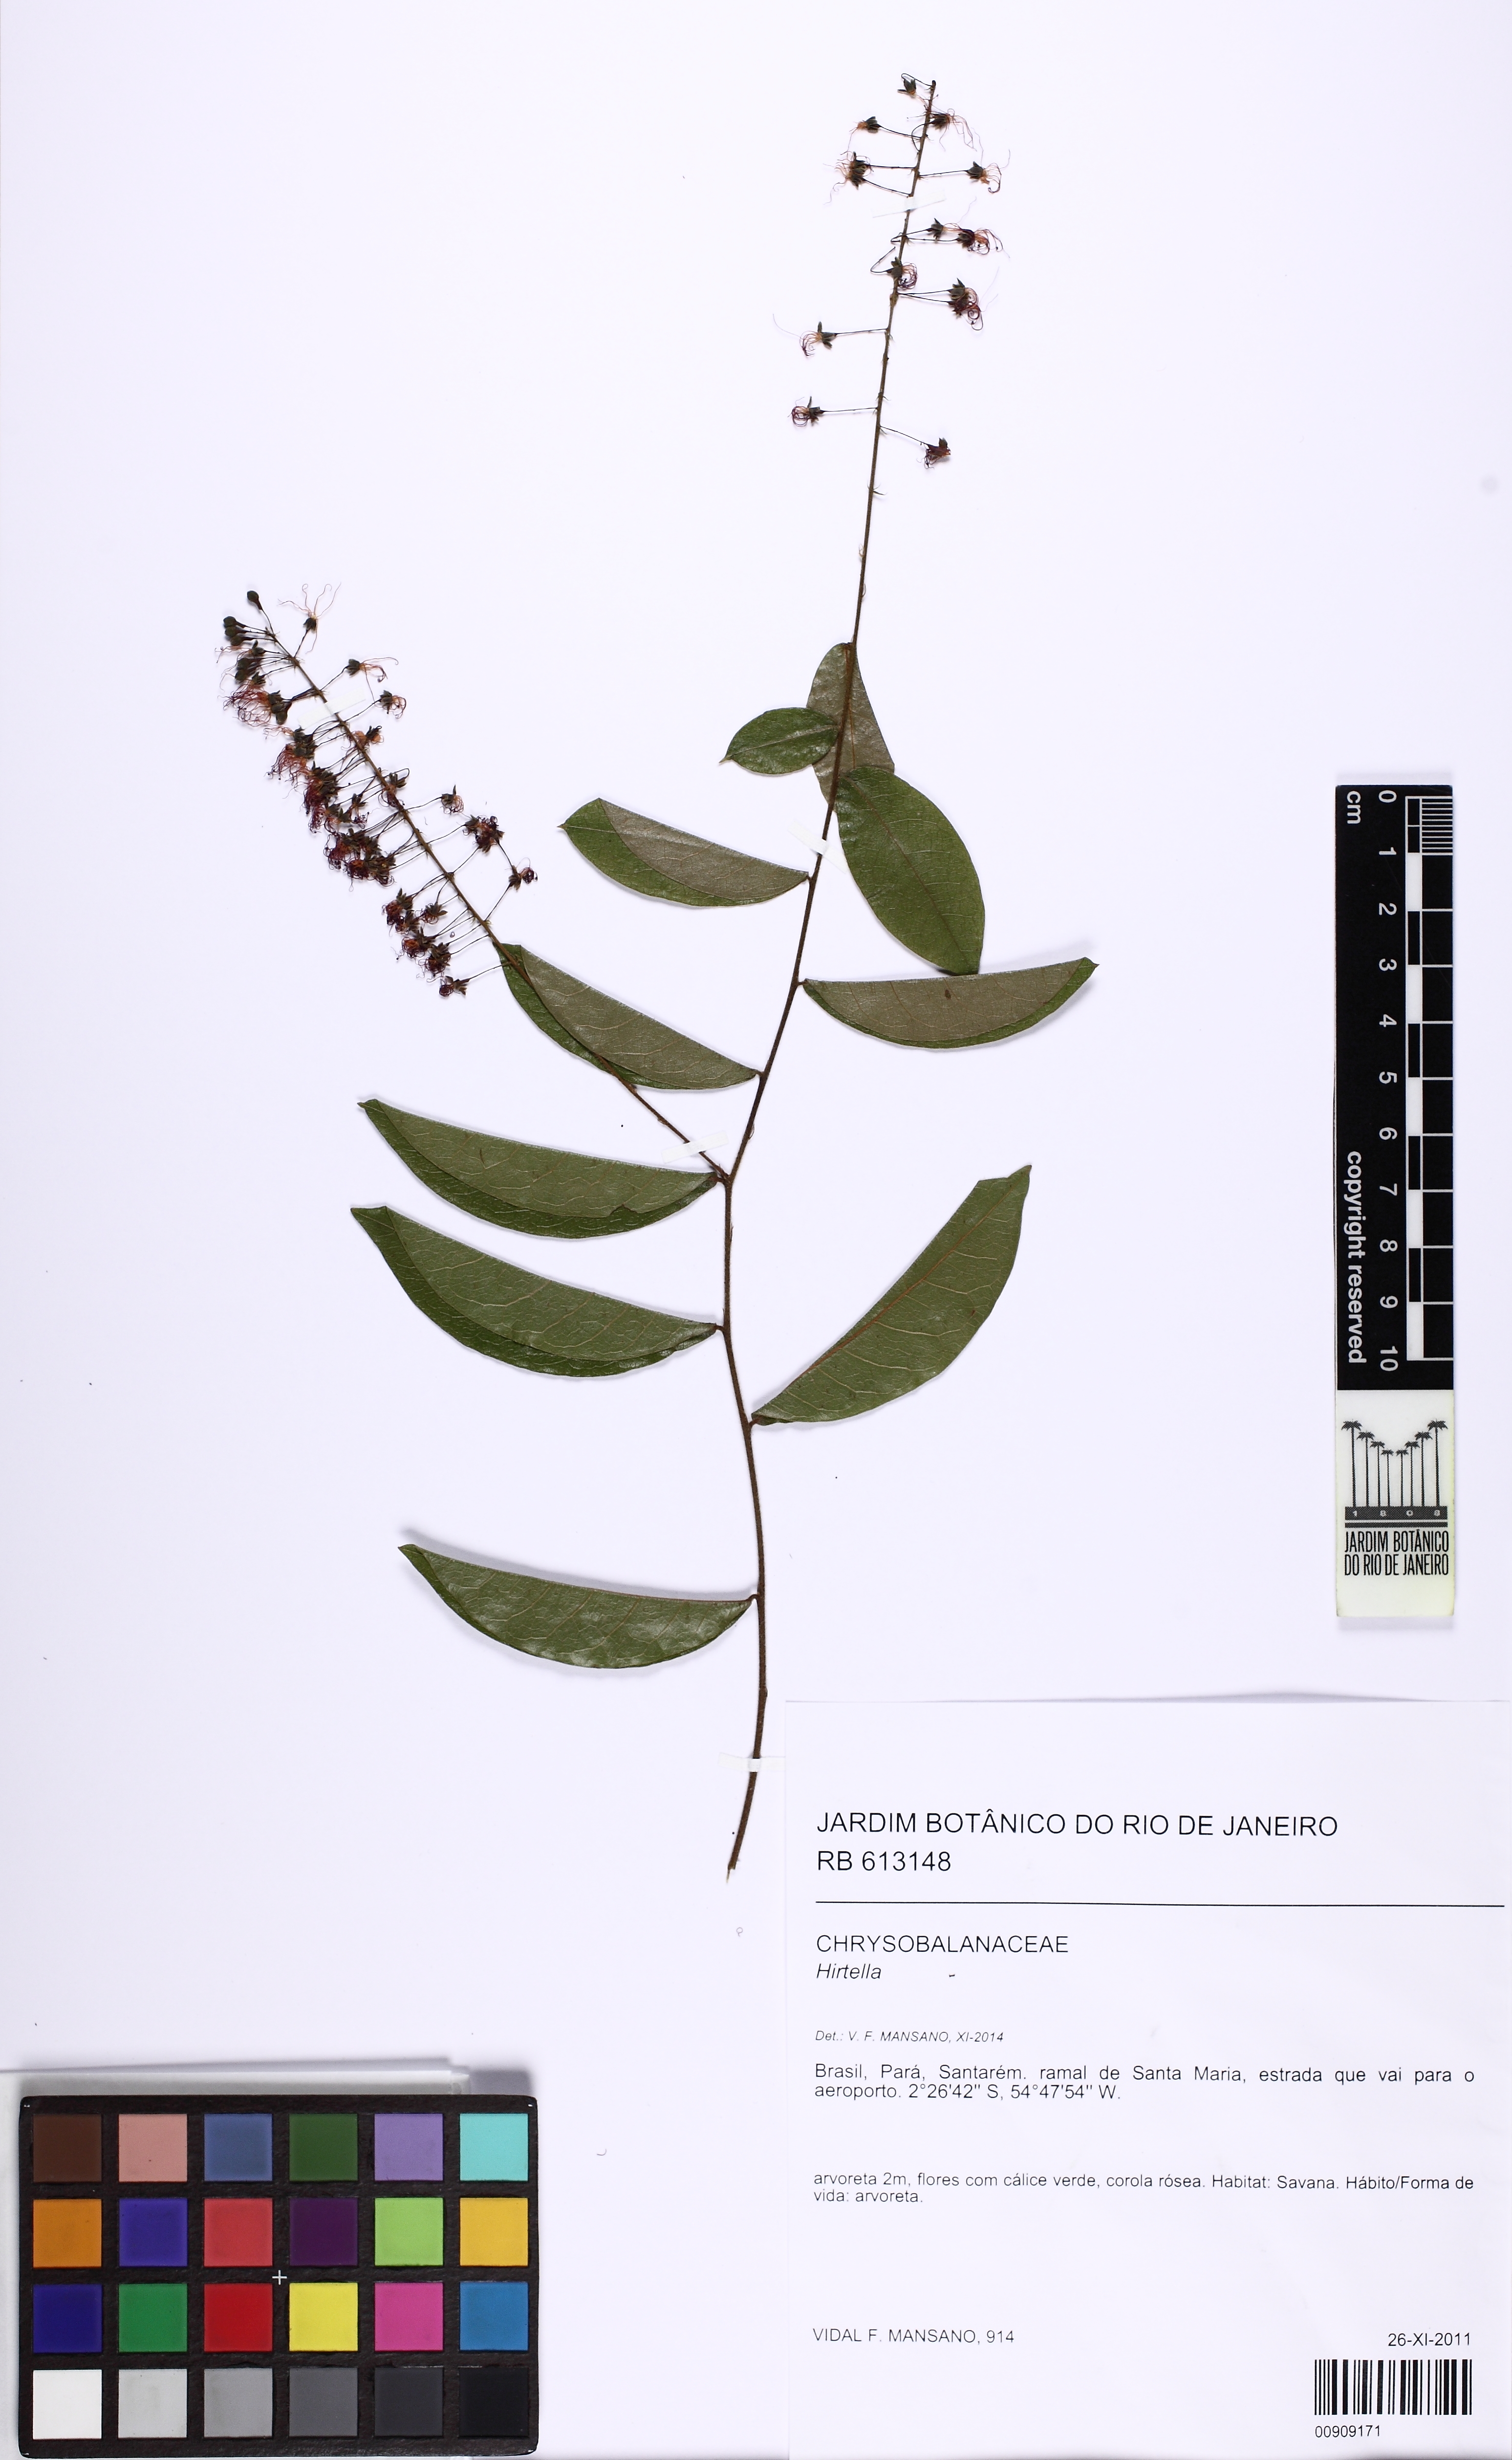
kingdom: Plantae
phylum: Tracheophyta
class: Magnoliopsida
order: Malpighiales
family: Chrysobalanaceae
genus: Hirtella
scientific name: Hirtella racemosa
